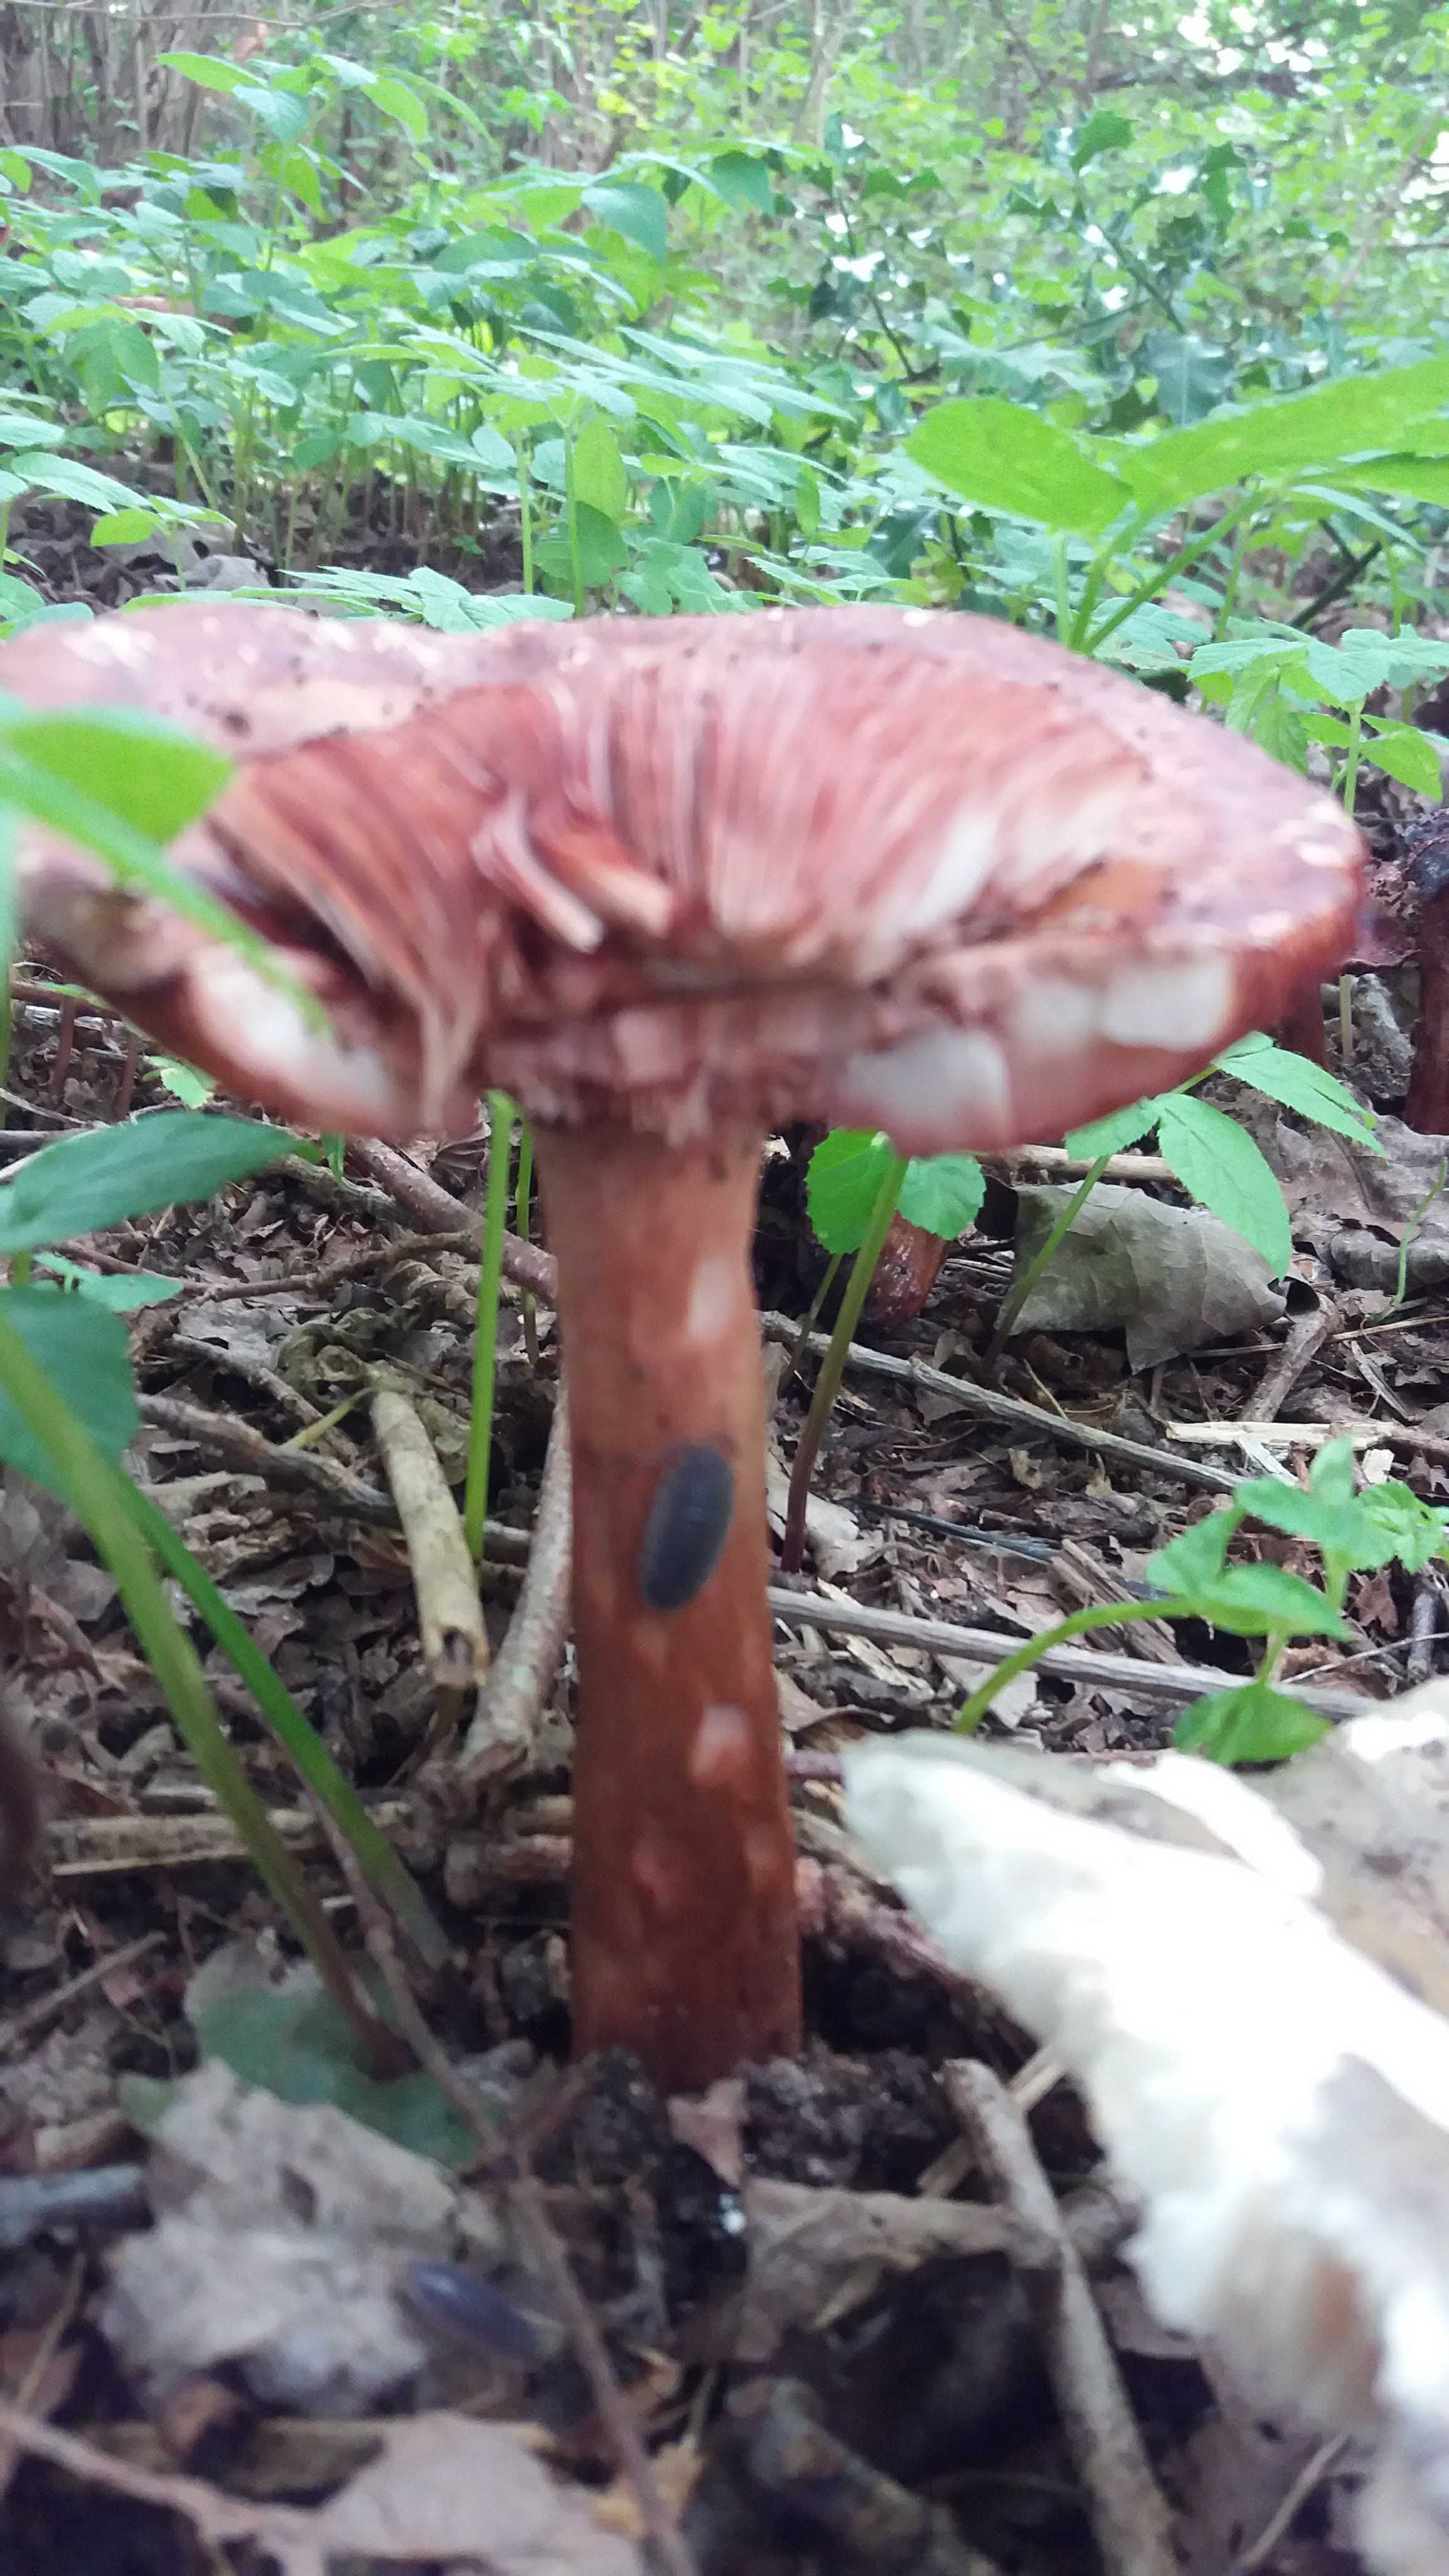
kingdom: Fungi
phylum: Basidiomycota
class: Agaricomycetes
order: Agaricales
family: Amanitaceae
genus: Amanita
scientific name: Amanita rubescens
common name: rødmende fluesvamp
